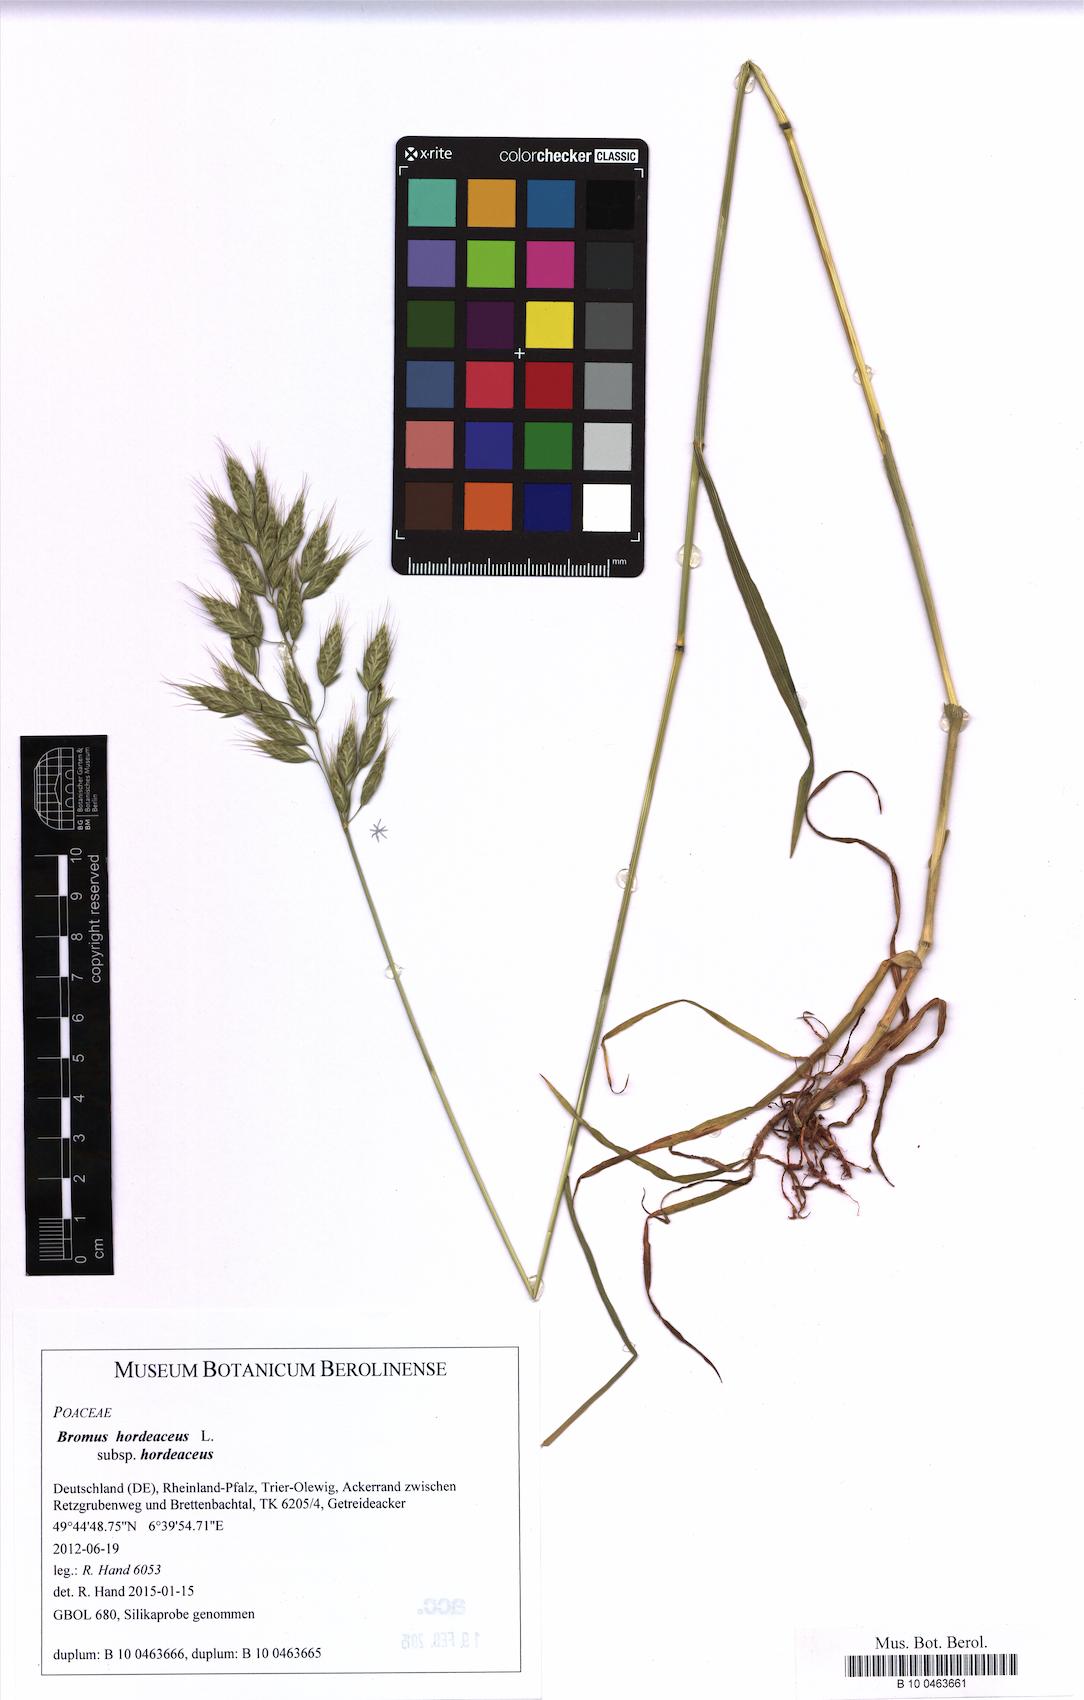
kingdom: Plantae
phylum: Tracheophyta
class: Liliopsida
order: Poales
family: Poaceae
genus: Bromus
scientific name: Bromus hordeaceus
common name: Soft brome
